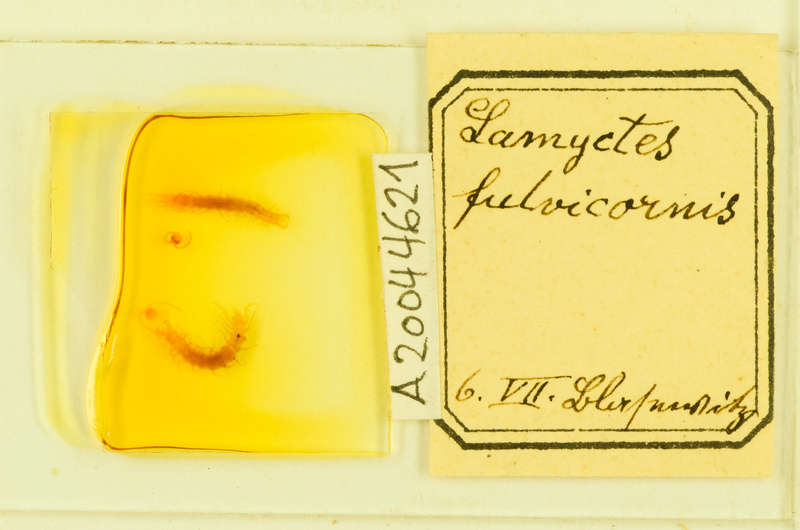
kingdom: Animalia
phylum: Arthropoda
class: Chilopoda
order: Lithobiomorpha
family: Henicopidae
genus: Lamyctes
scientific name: Lamyctes emarginatus
